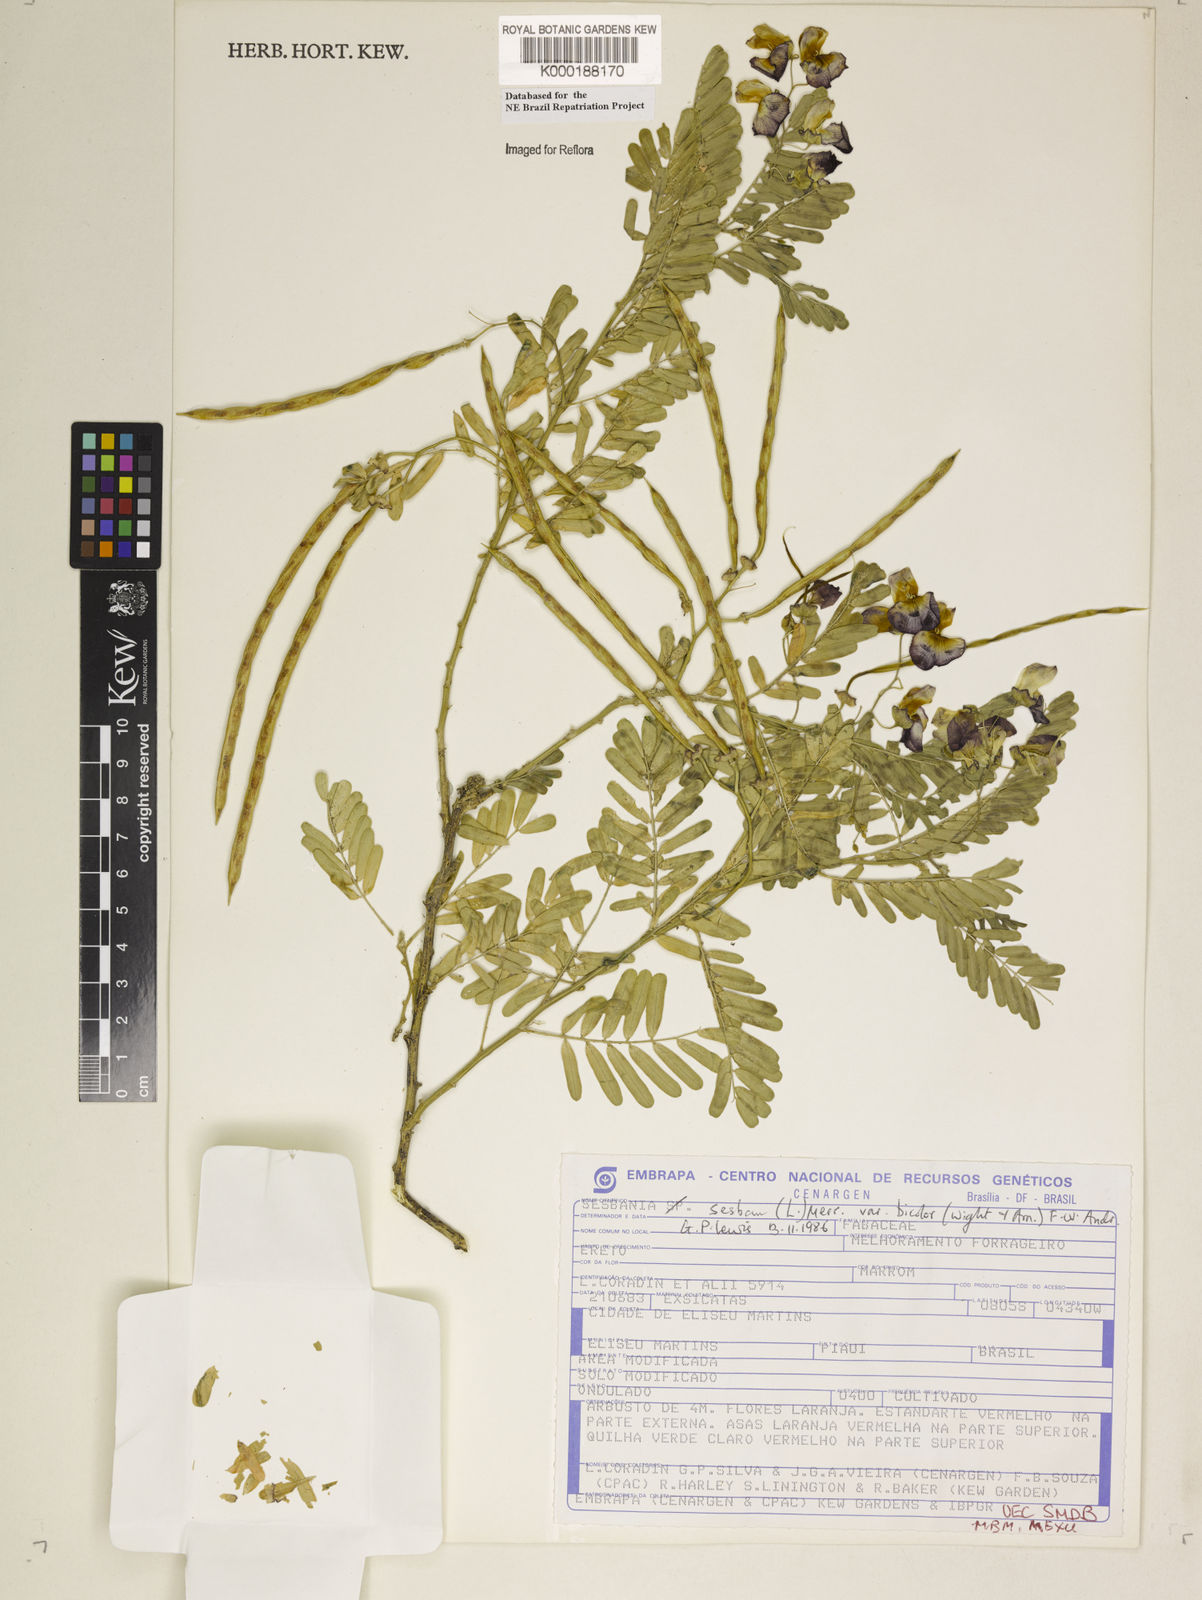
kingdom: Plantae
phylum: Tracheophyta
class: Magnoliopsida
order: Fabales
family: Fabaceae
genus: Sesbania
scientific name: Sesbania sesban
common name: Egyptian sesban
